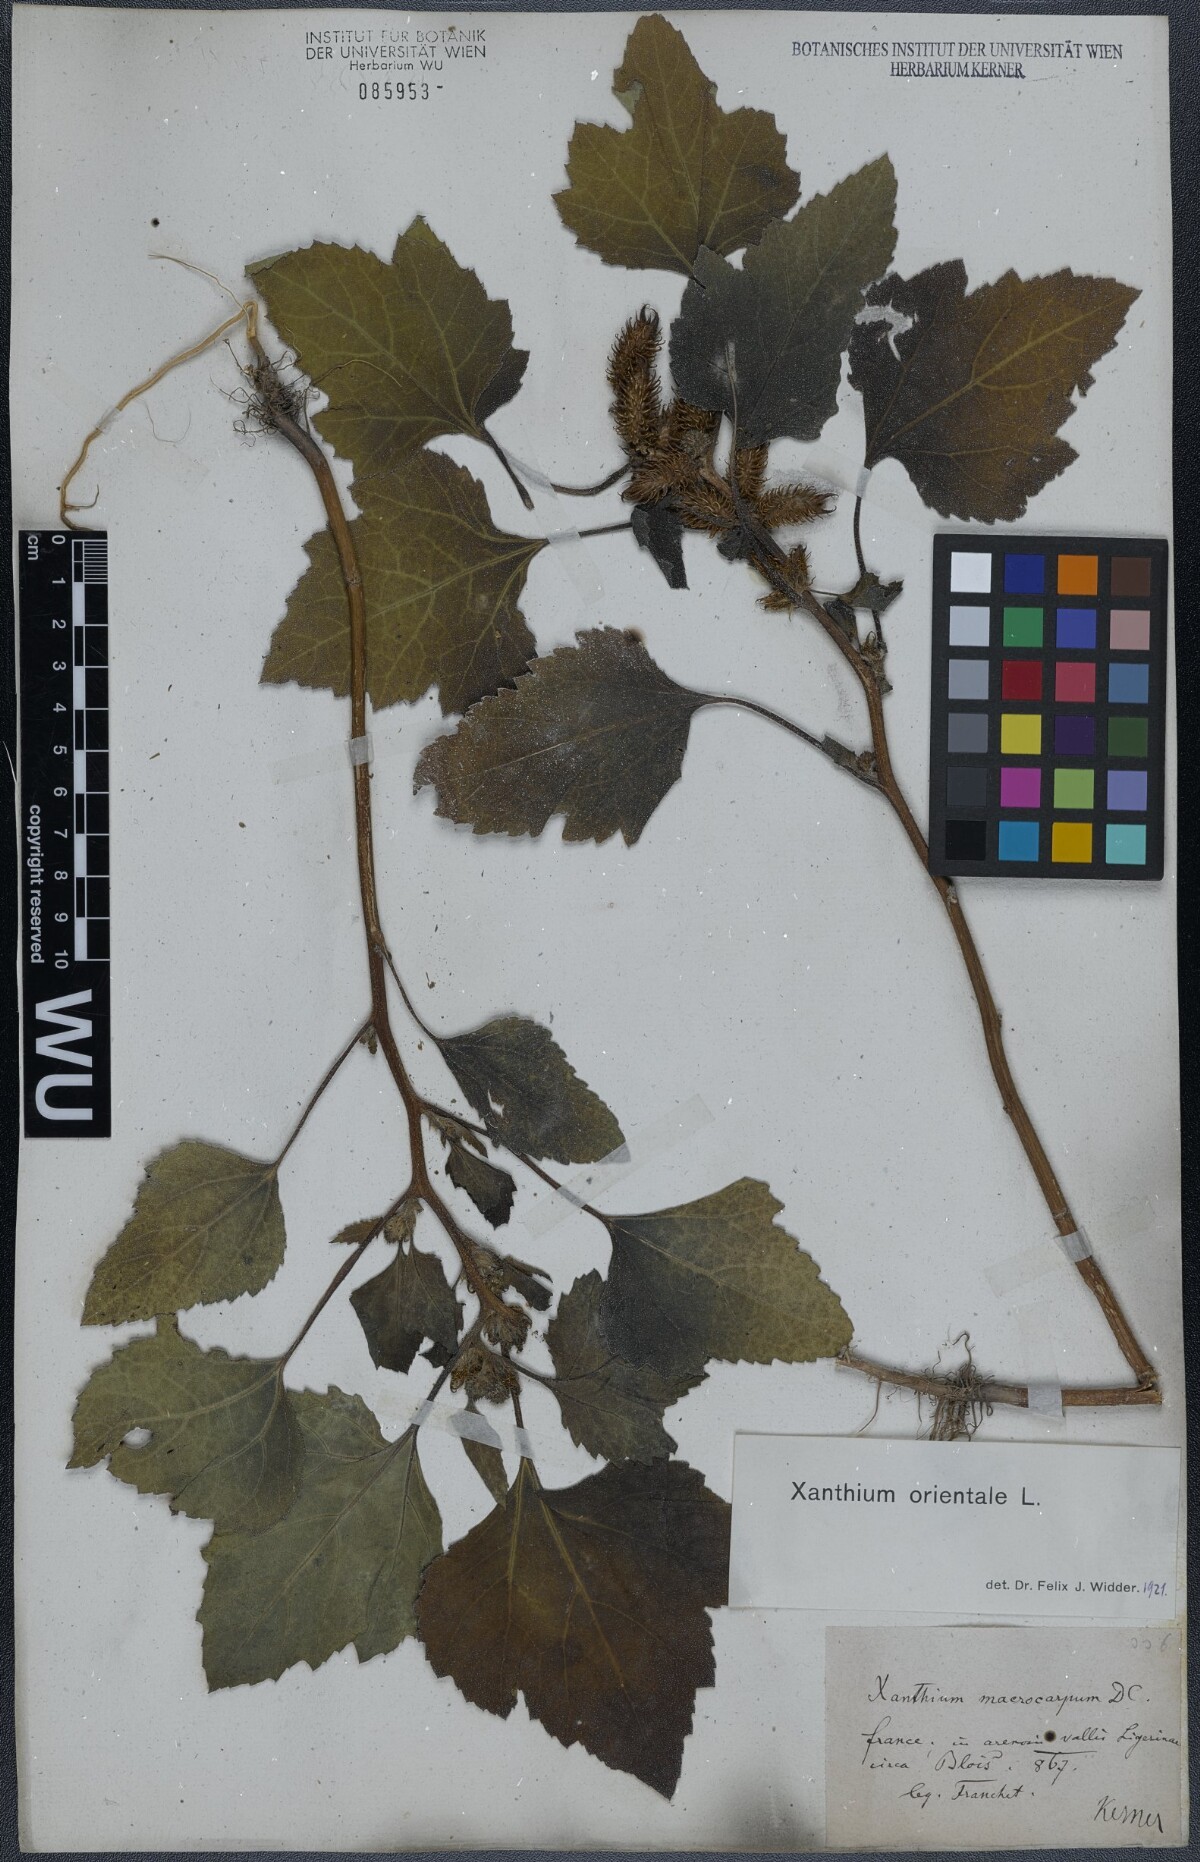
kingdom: Plantae
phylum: Tracheophyta
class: Magnoliopsida
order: Asterales
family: Asteraceae
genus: Xanthium
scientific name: Xanthium orientale
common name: Californian burr
